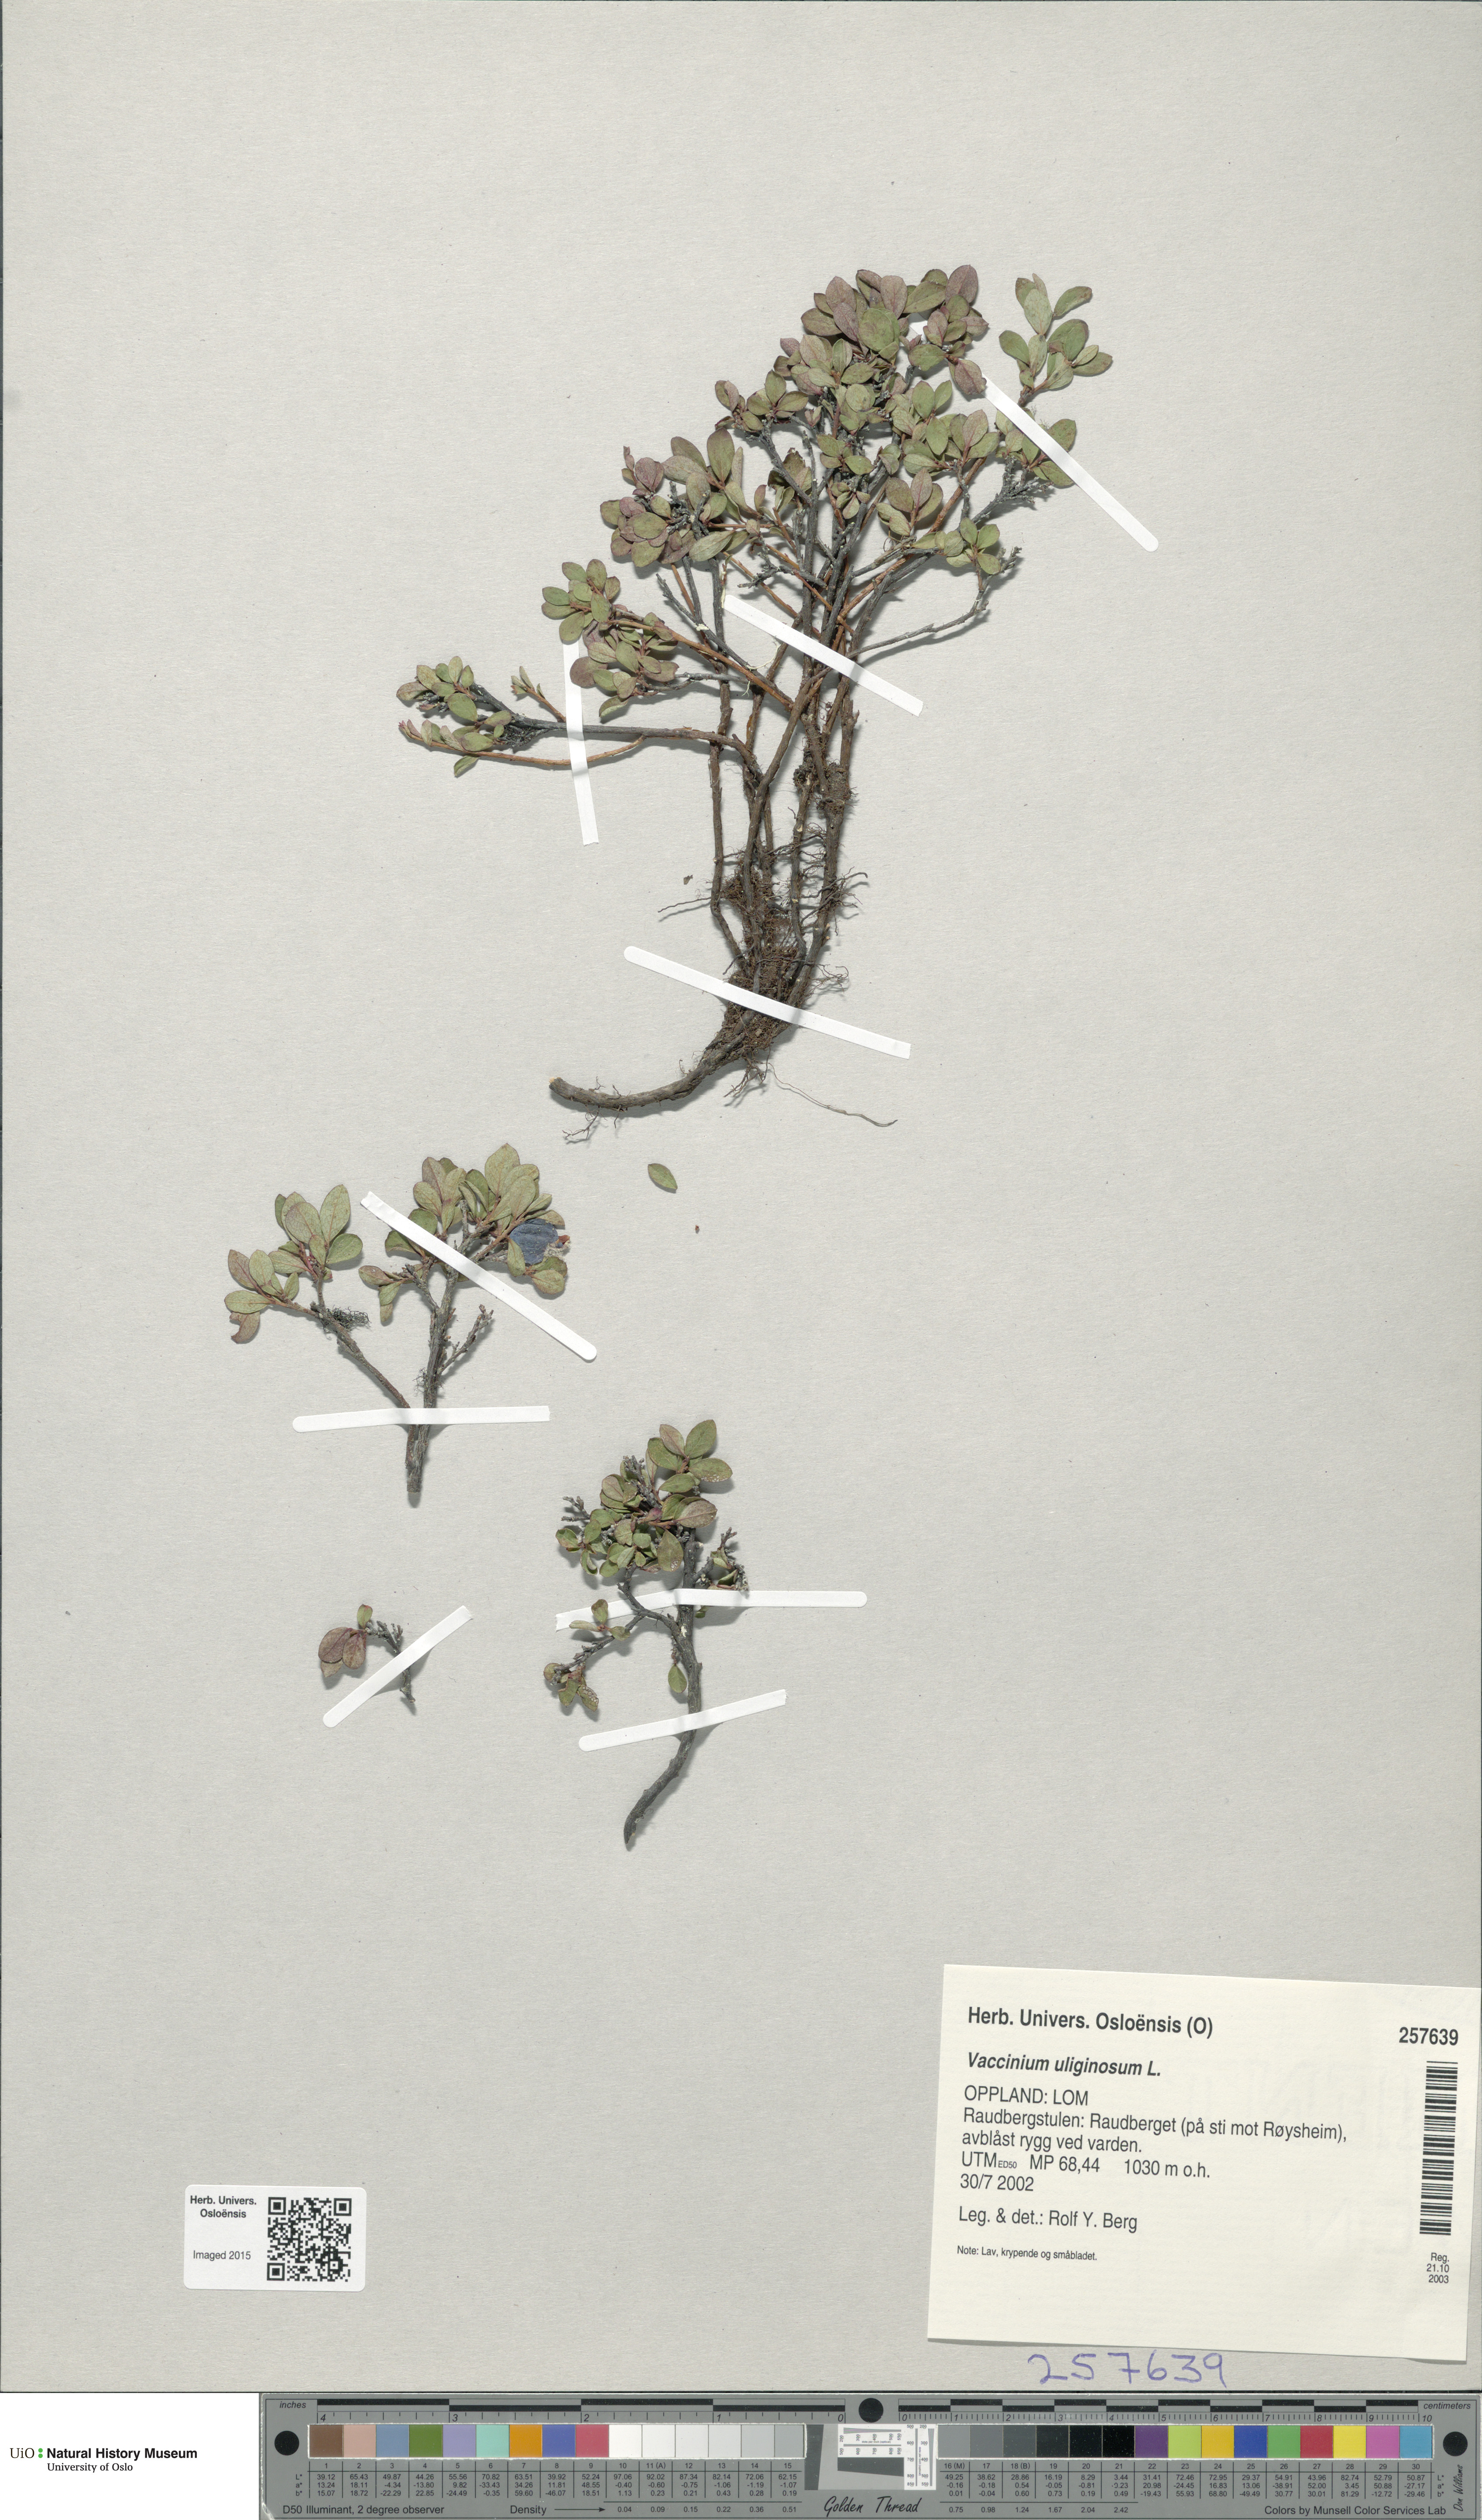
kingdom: Plantae
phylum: Tracheophyta
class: Magnoliopsida
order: Ericales
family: Ericaceae
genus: Vaccinium
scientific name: Vaccinium uliginosum
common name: Bog bilberry
